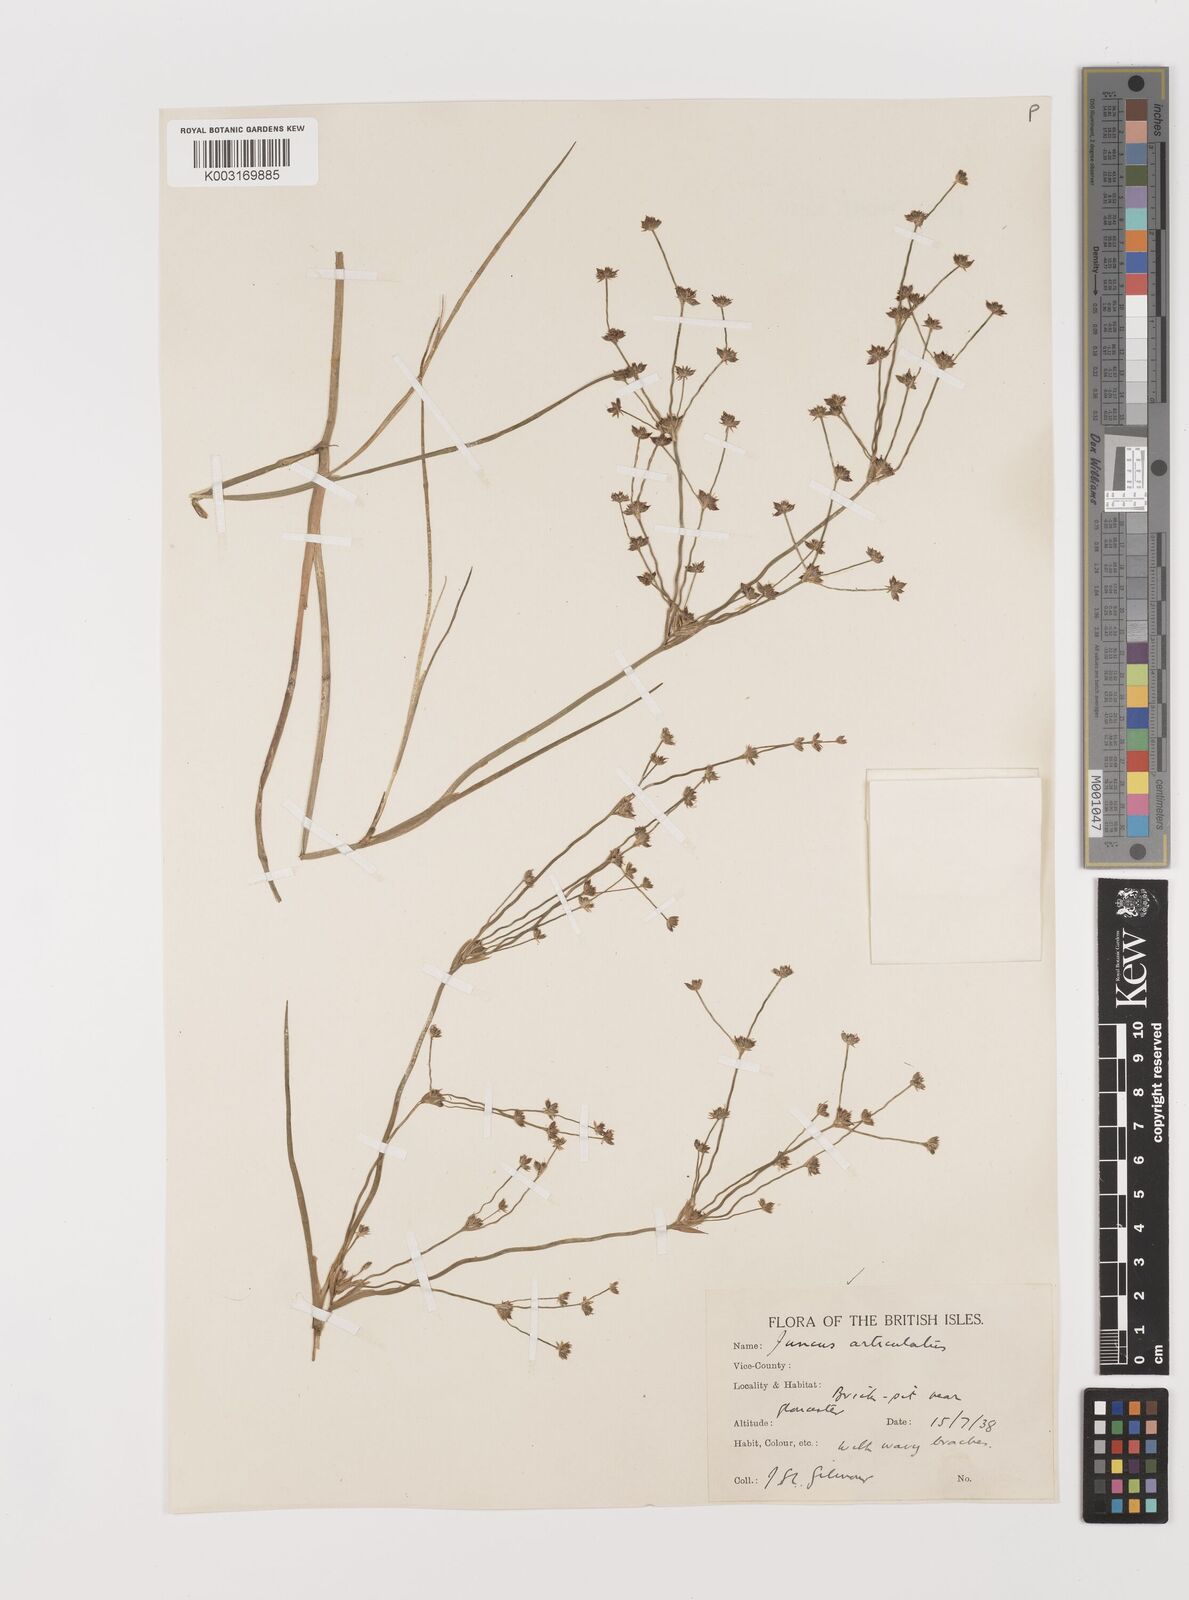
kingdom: Plantae
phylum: Tracheophyta
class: Liliopsida
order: Poales
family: Juncaceae
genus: Juncus
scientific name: Juncus articulatus
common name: Jointed rush
